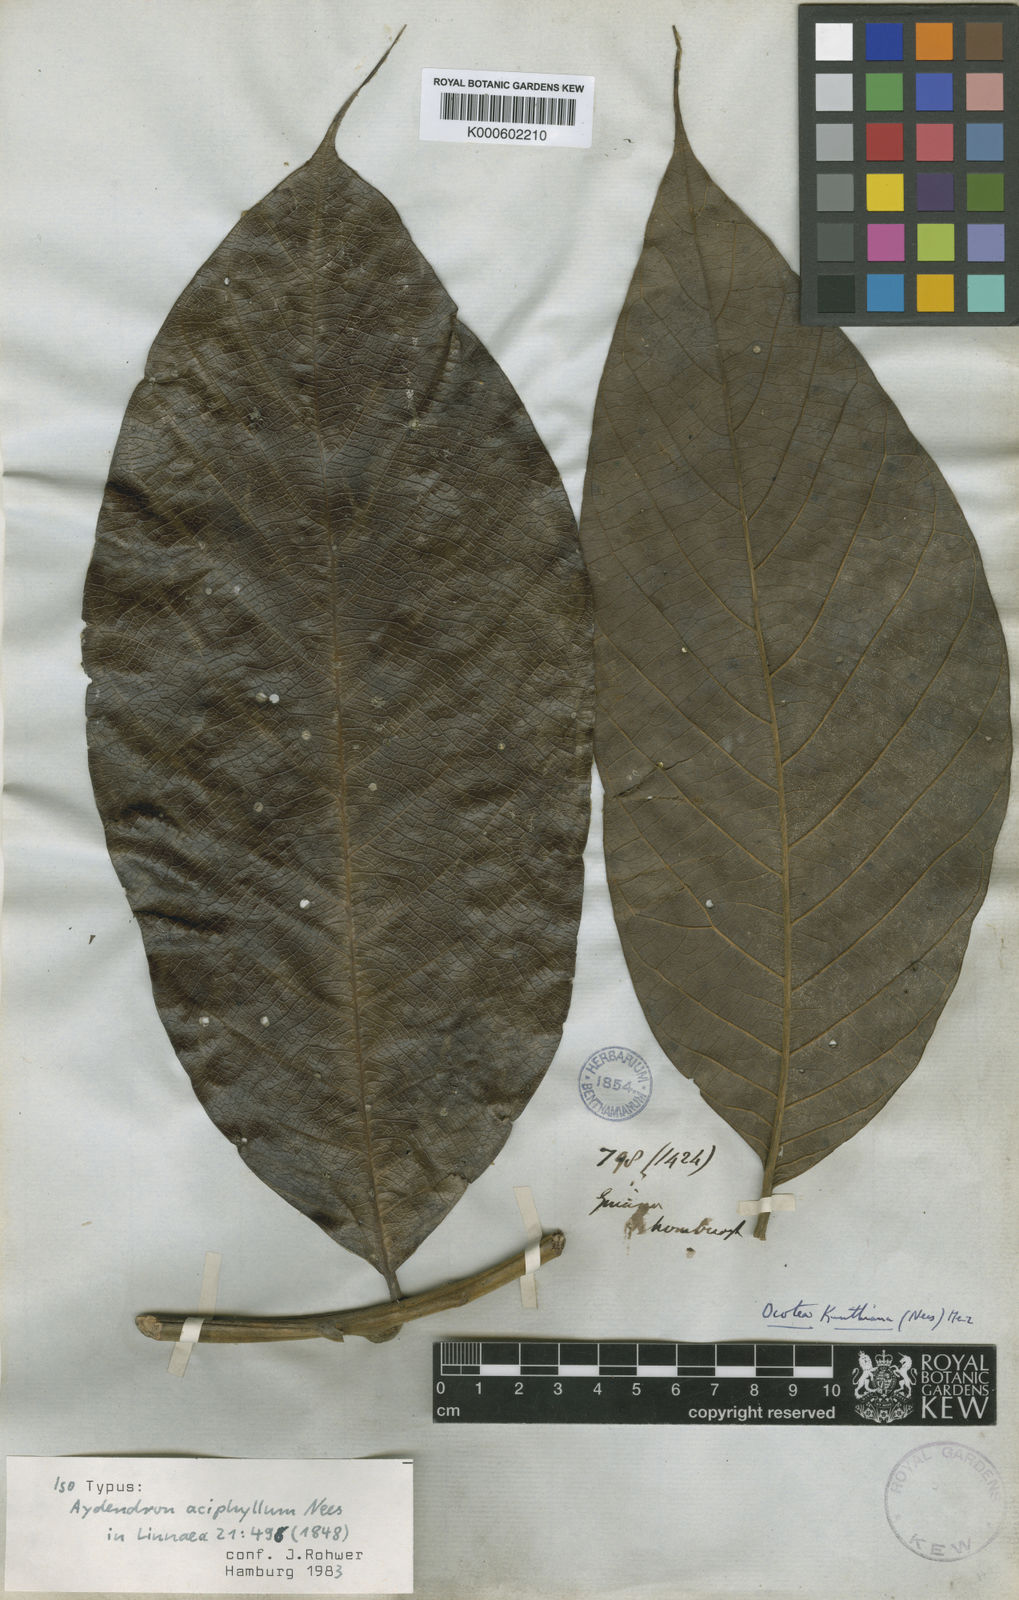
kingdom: Plantae
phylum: Tracheophyta
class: Magnoliopsida
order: Laurales
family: Lauraceae
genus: Rhodostemonodaphne
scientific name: Rhodostemonodaphne kunthiana
